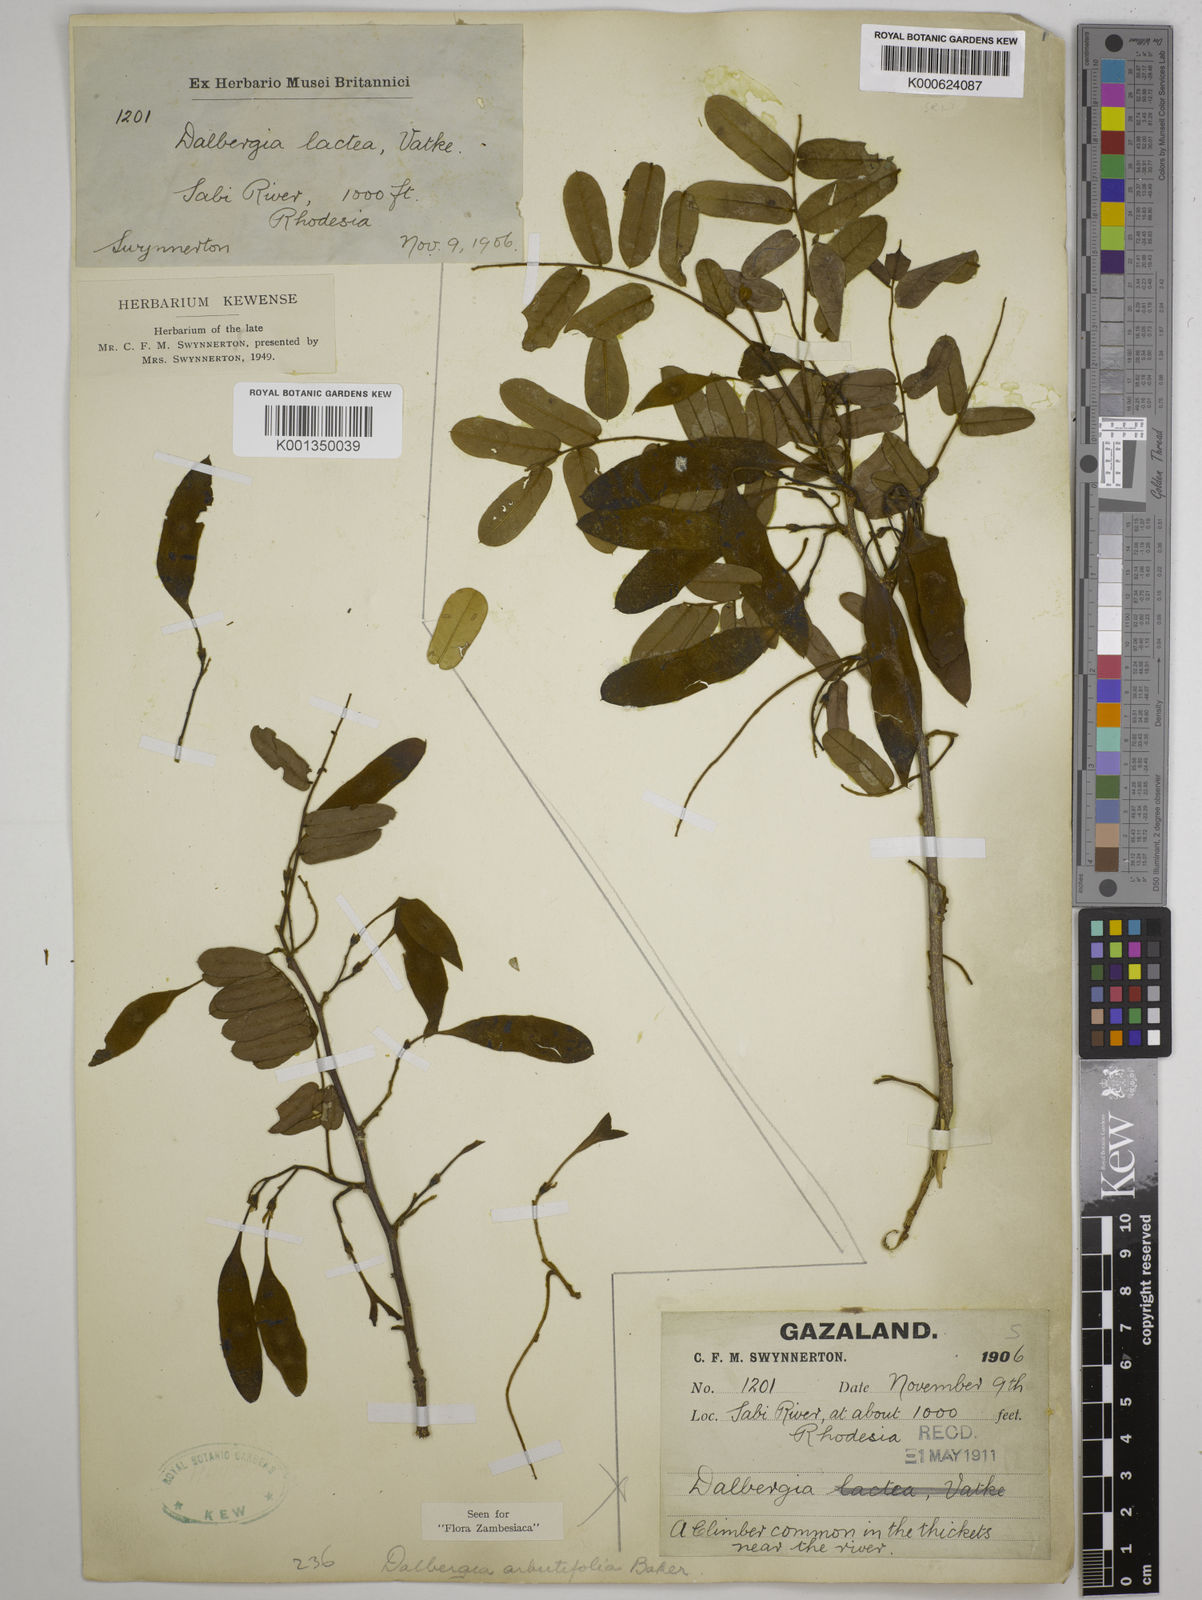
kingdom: Plantae
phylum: Tracheophyta
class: Magnoliopsida
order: Fabales
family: Fabaceae
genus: Dalbergia
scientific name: Dalbergia arbutifolia
